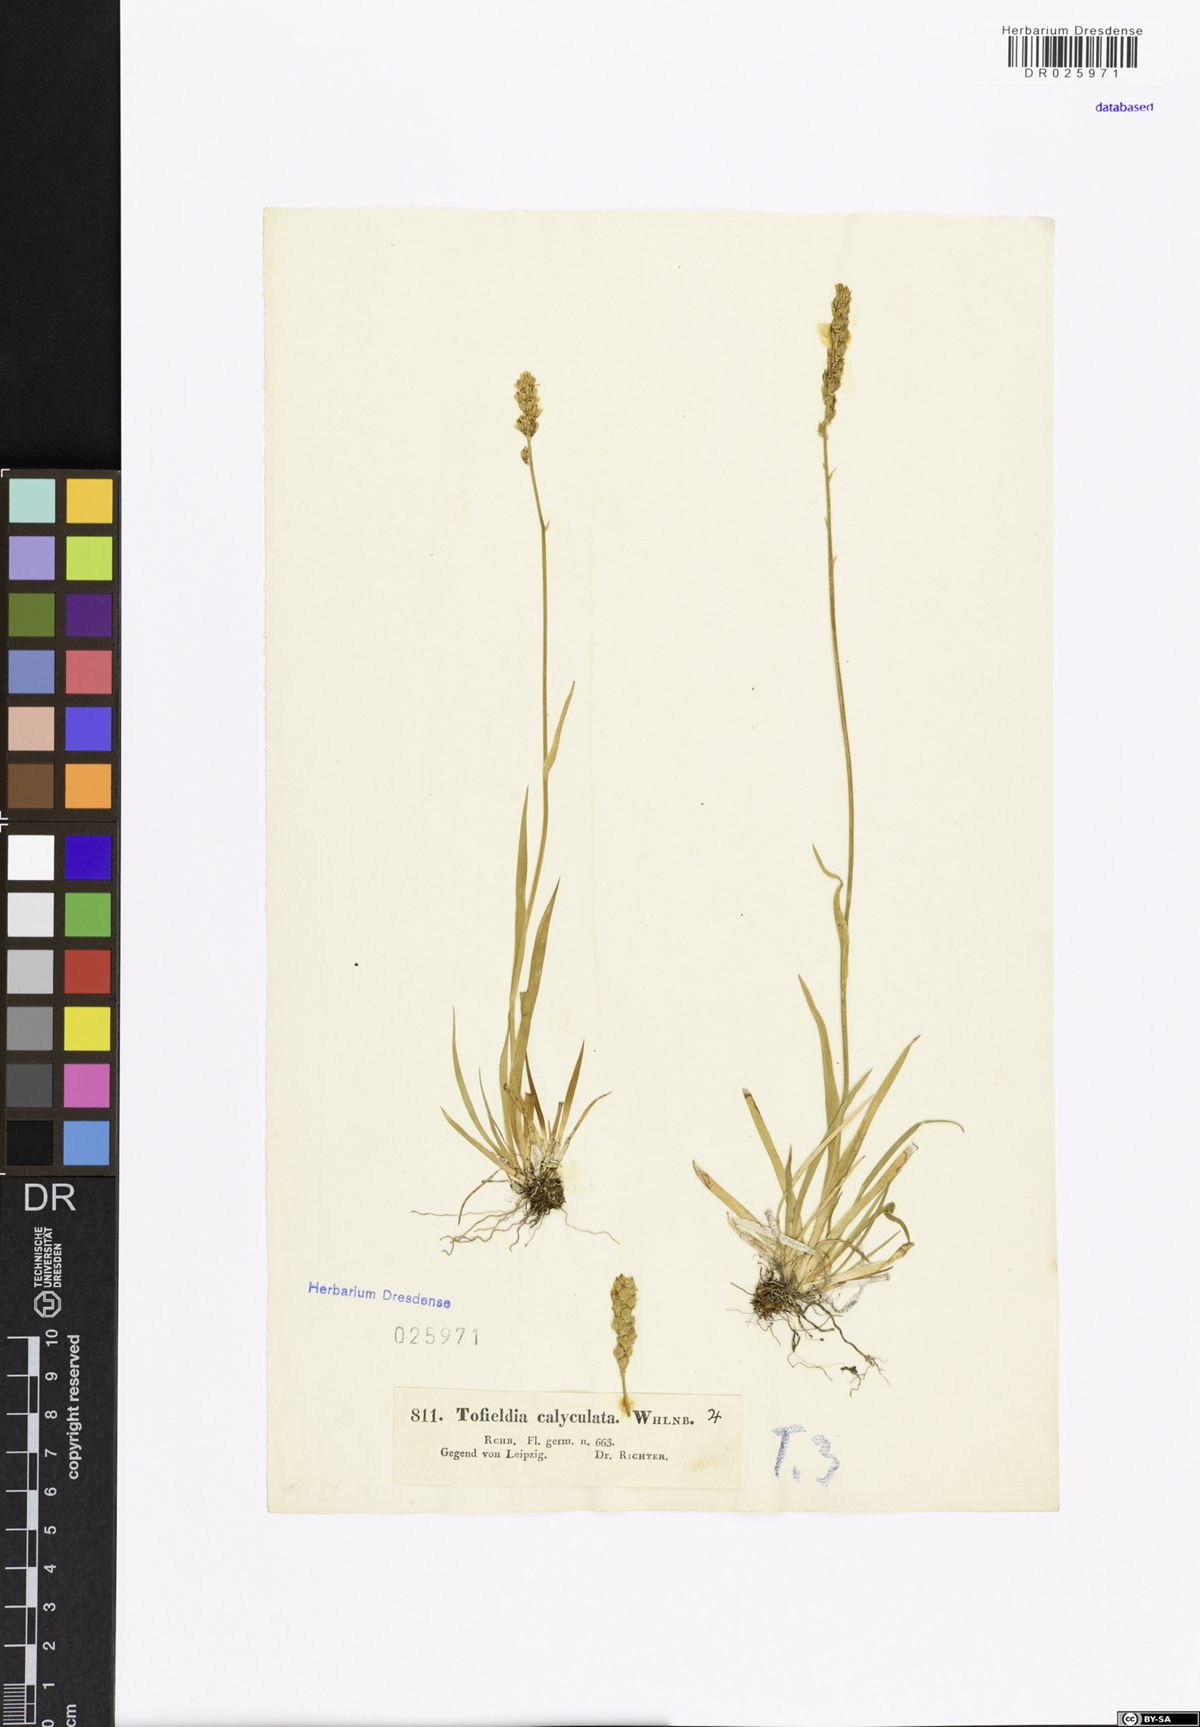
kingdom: Plantae
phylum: Tracheophyta
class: Liliopsida
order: Alismatales
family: Tofieldiaceae
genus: Tofieldia
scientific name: Tofieldia calyculata
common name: German-asphodel
